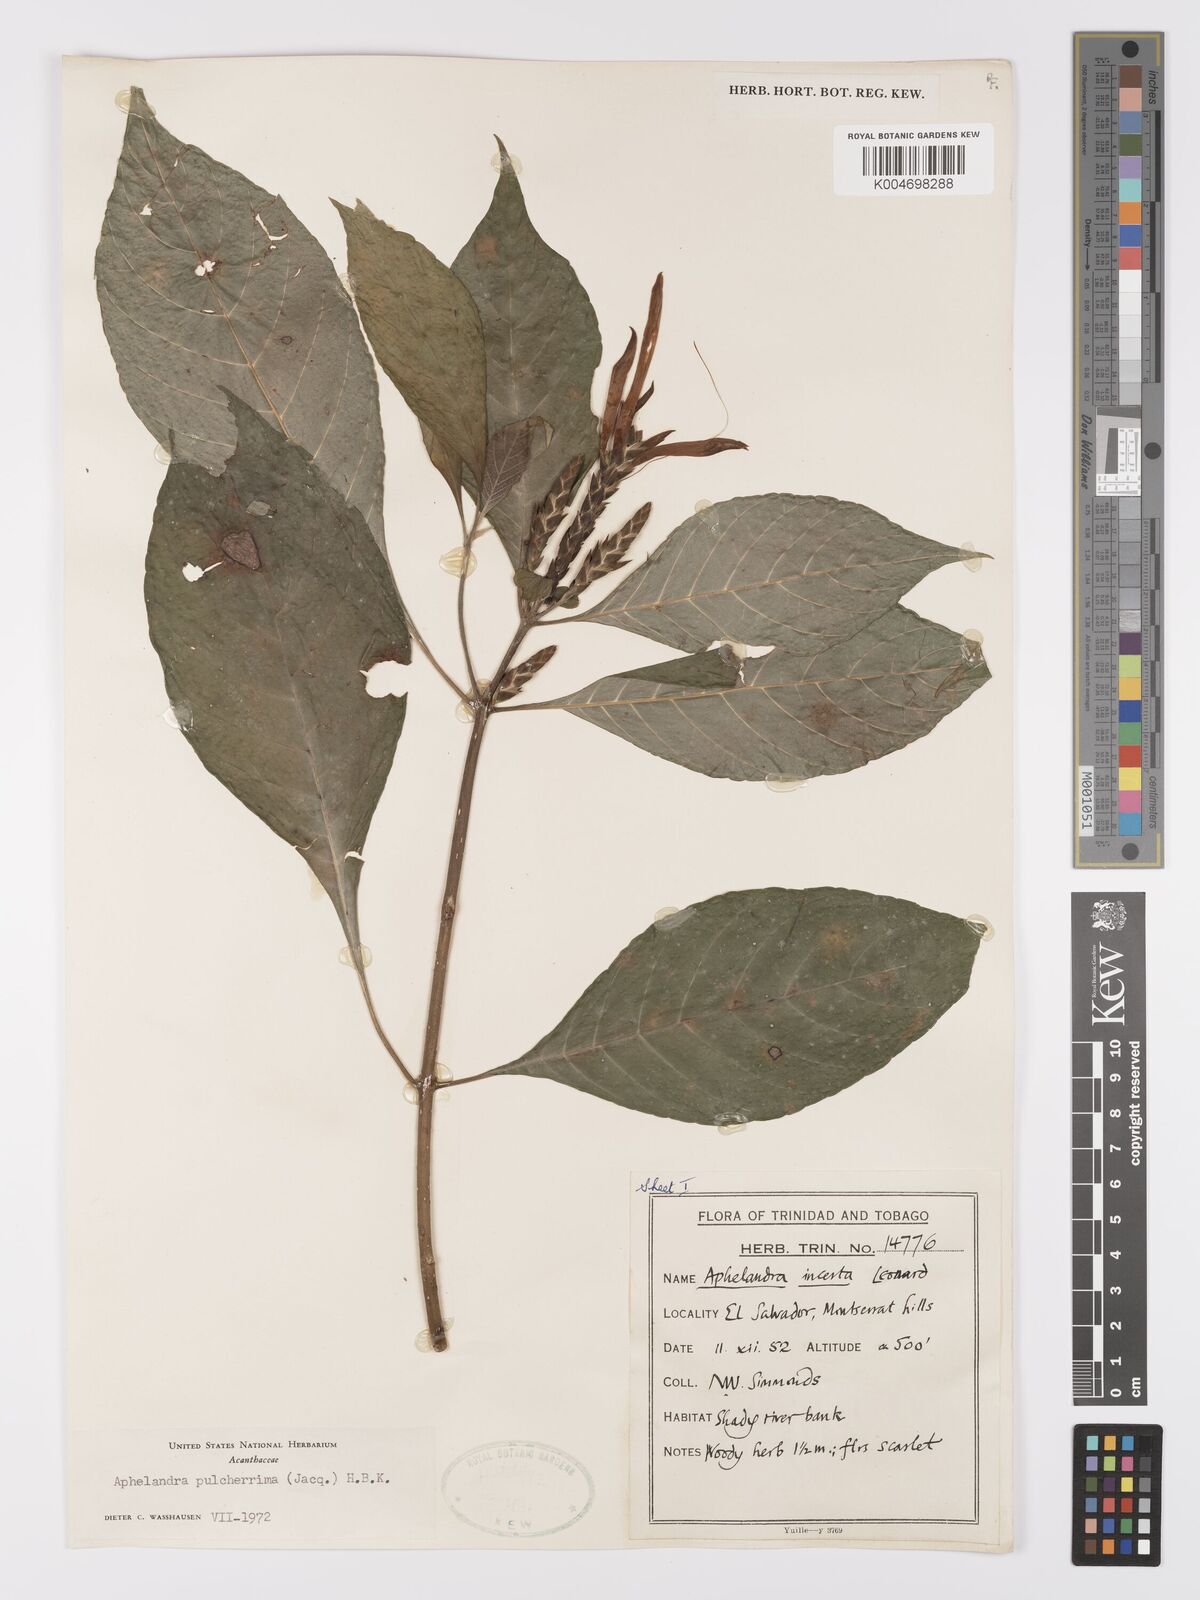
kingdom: Plantae
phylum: Tracheophyta
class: Magnoliopsida
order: Lamiales
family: Acanthaceae
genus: Aphelandra
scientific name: Aphelandra
